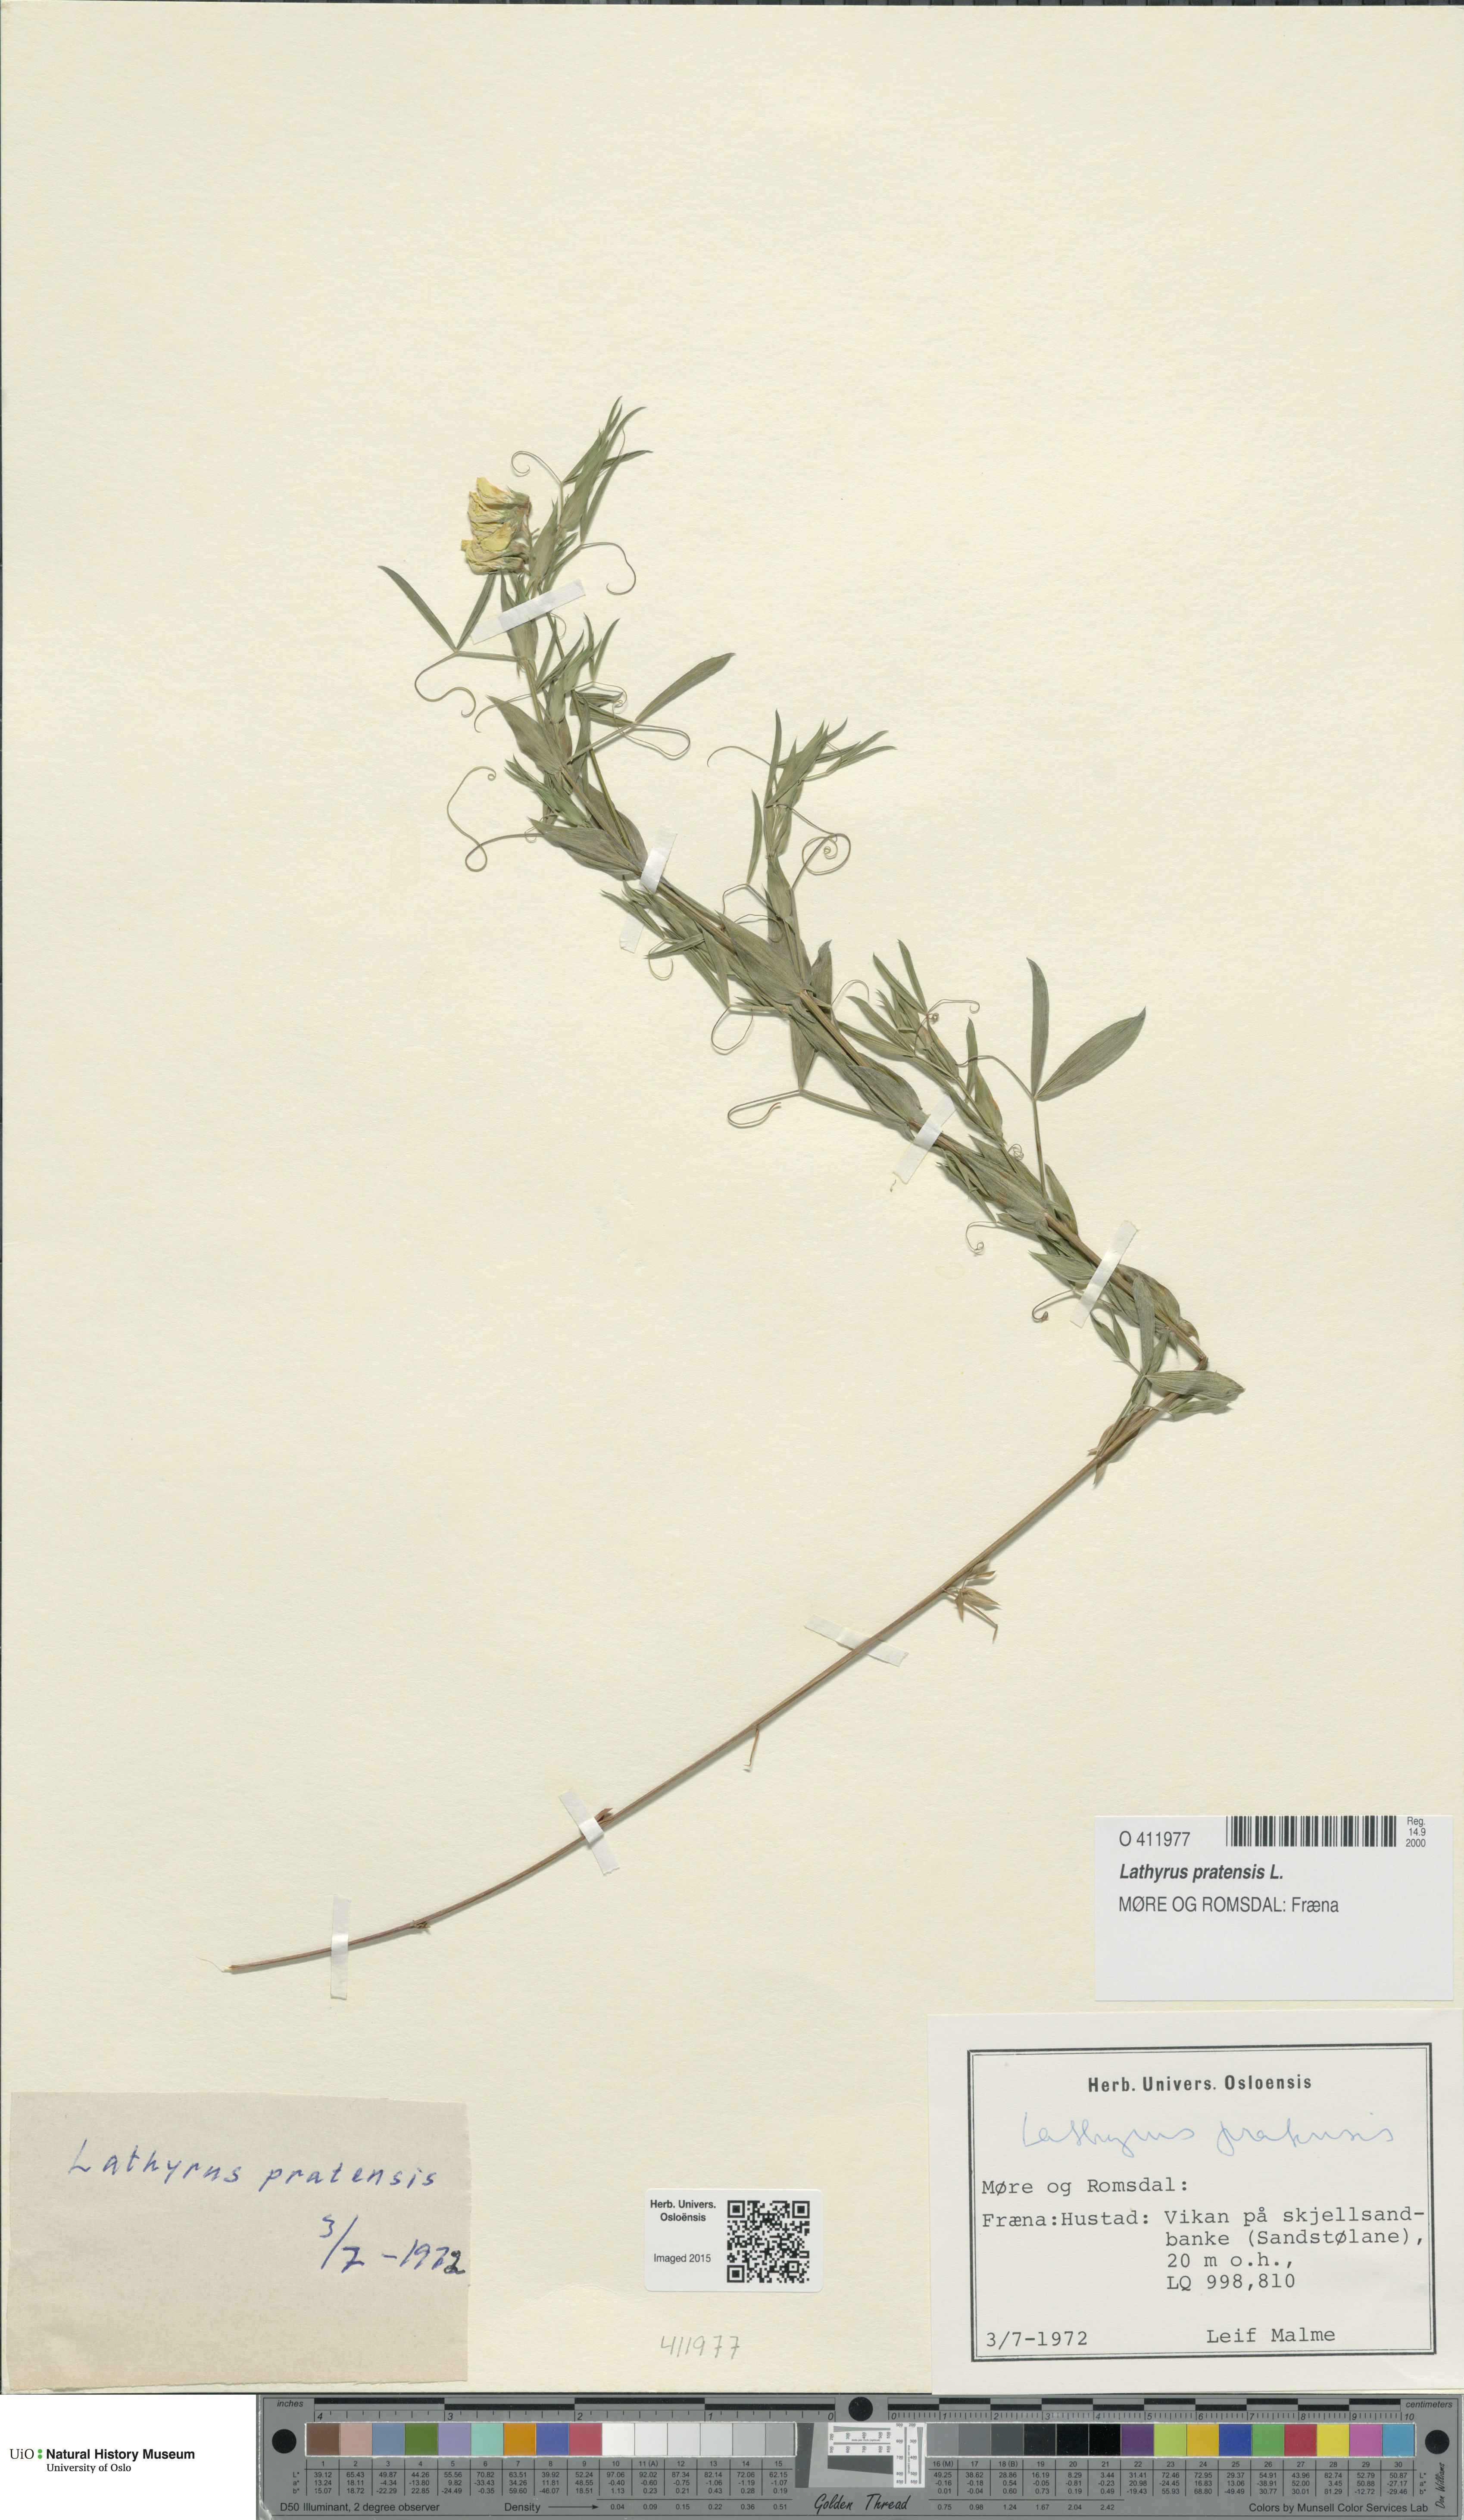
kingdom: Plantae
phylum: Tracheophyta
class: Magnoliopsida
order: Fabales
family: Fabaceae
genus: Lathyrus
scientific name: Lathyrus pratensis
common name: Meadow vetchling
